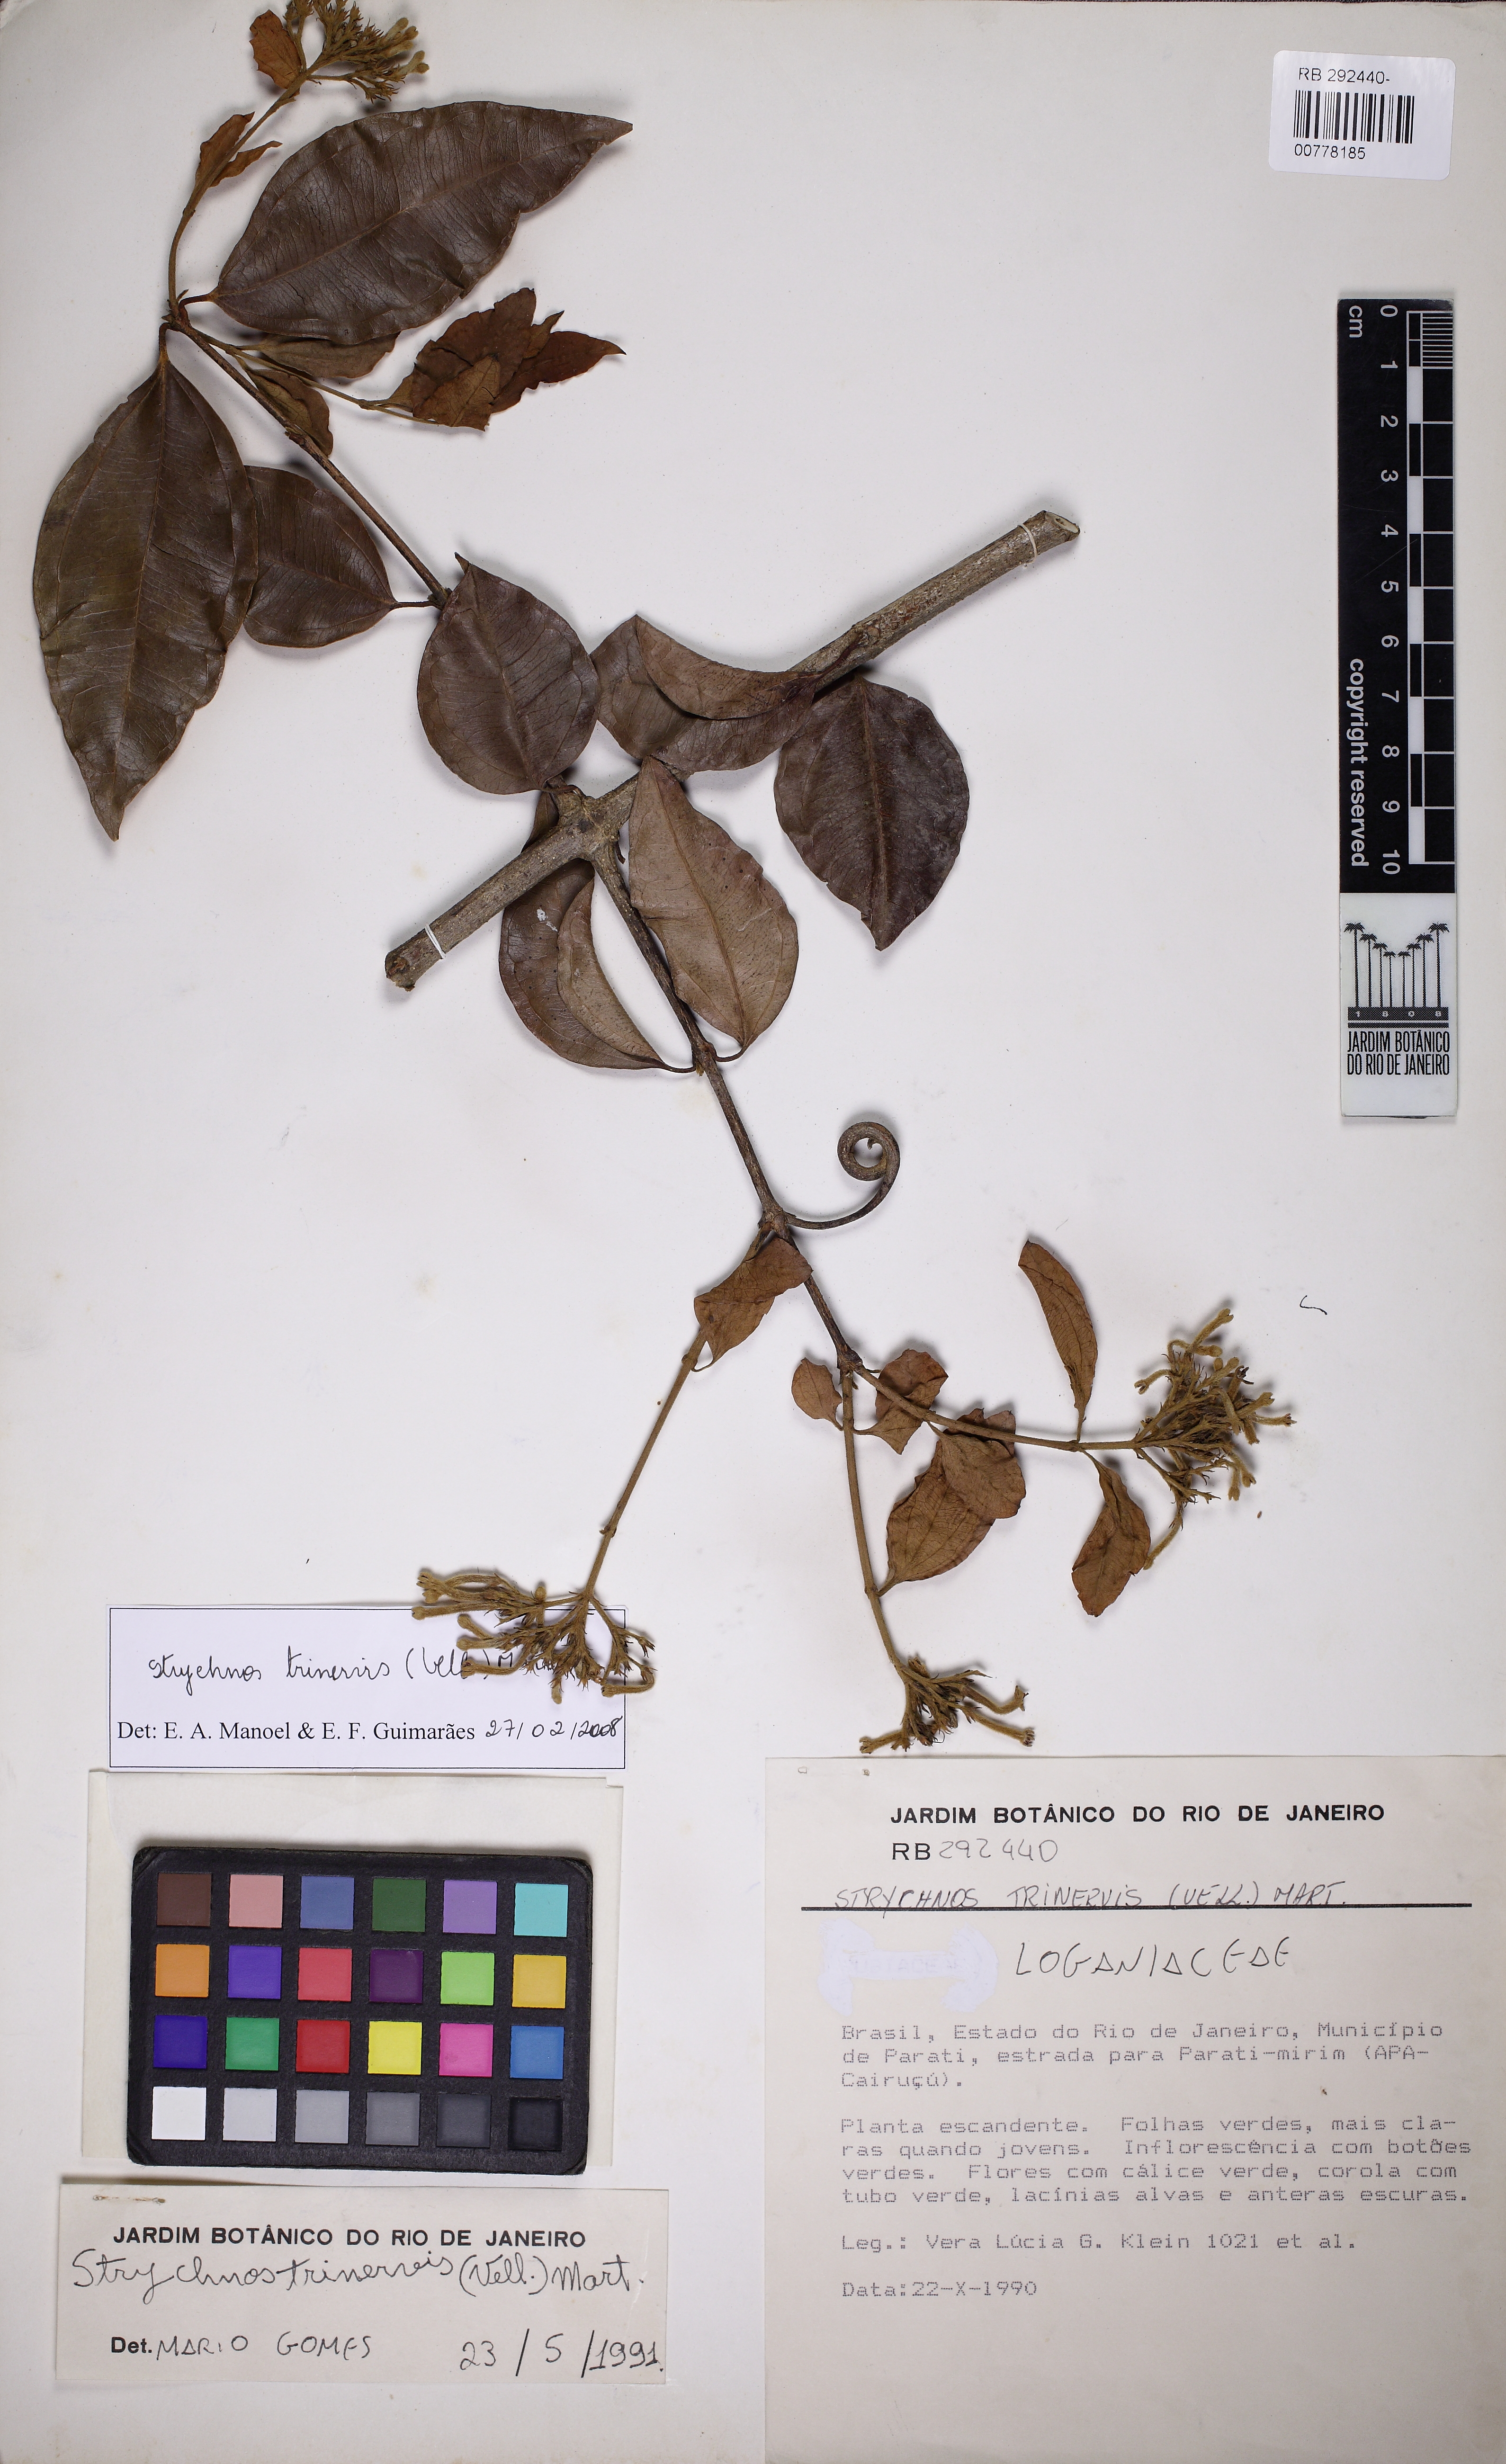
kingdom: Plantae
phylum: Tracheophyta
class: Magnoliopsida
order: Gentianales
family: Loganiaceae
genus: Strychnos
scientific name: Strychnos trinervis
